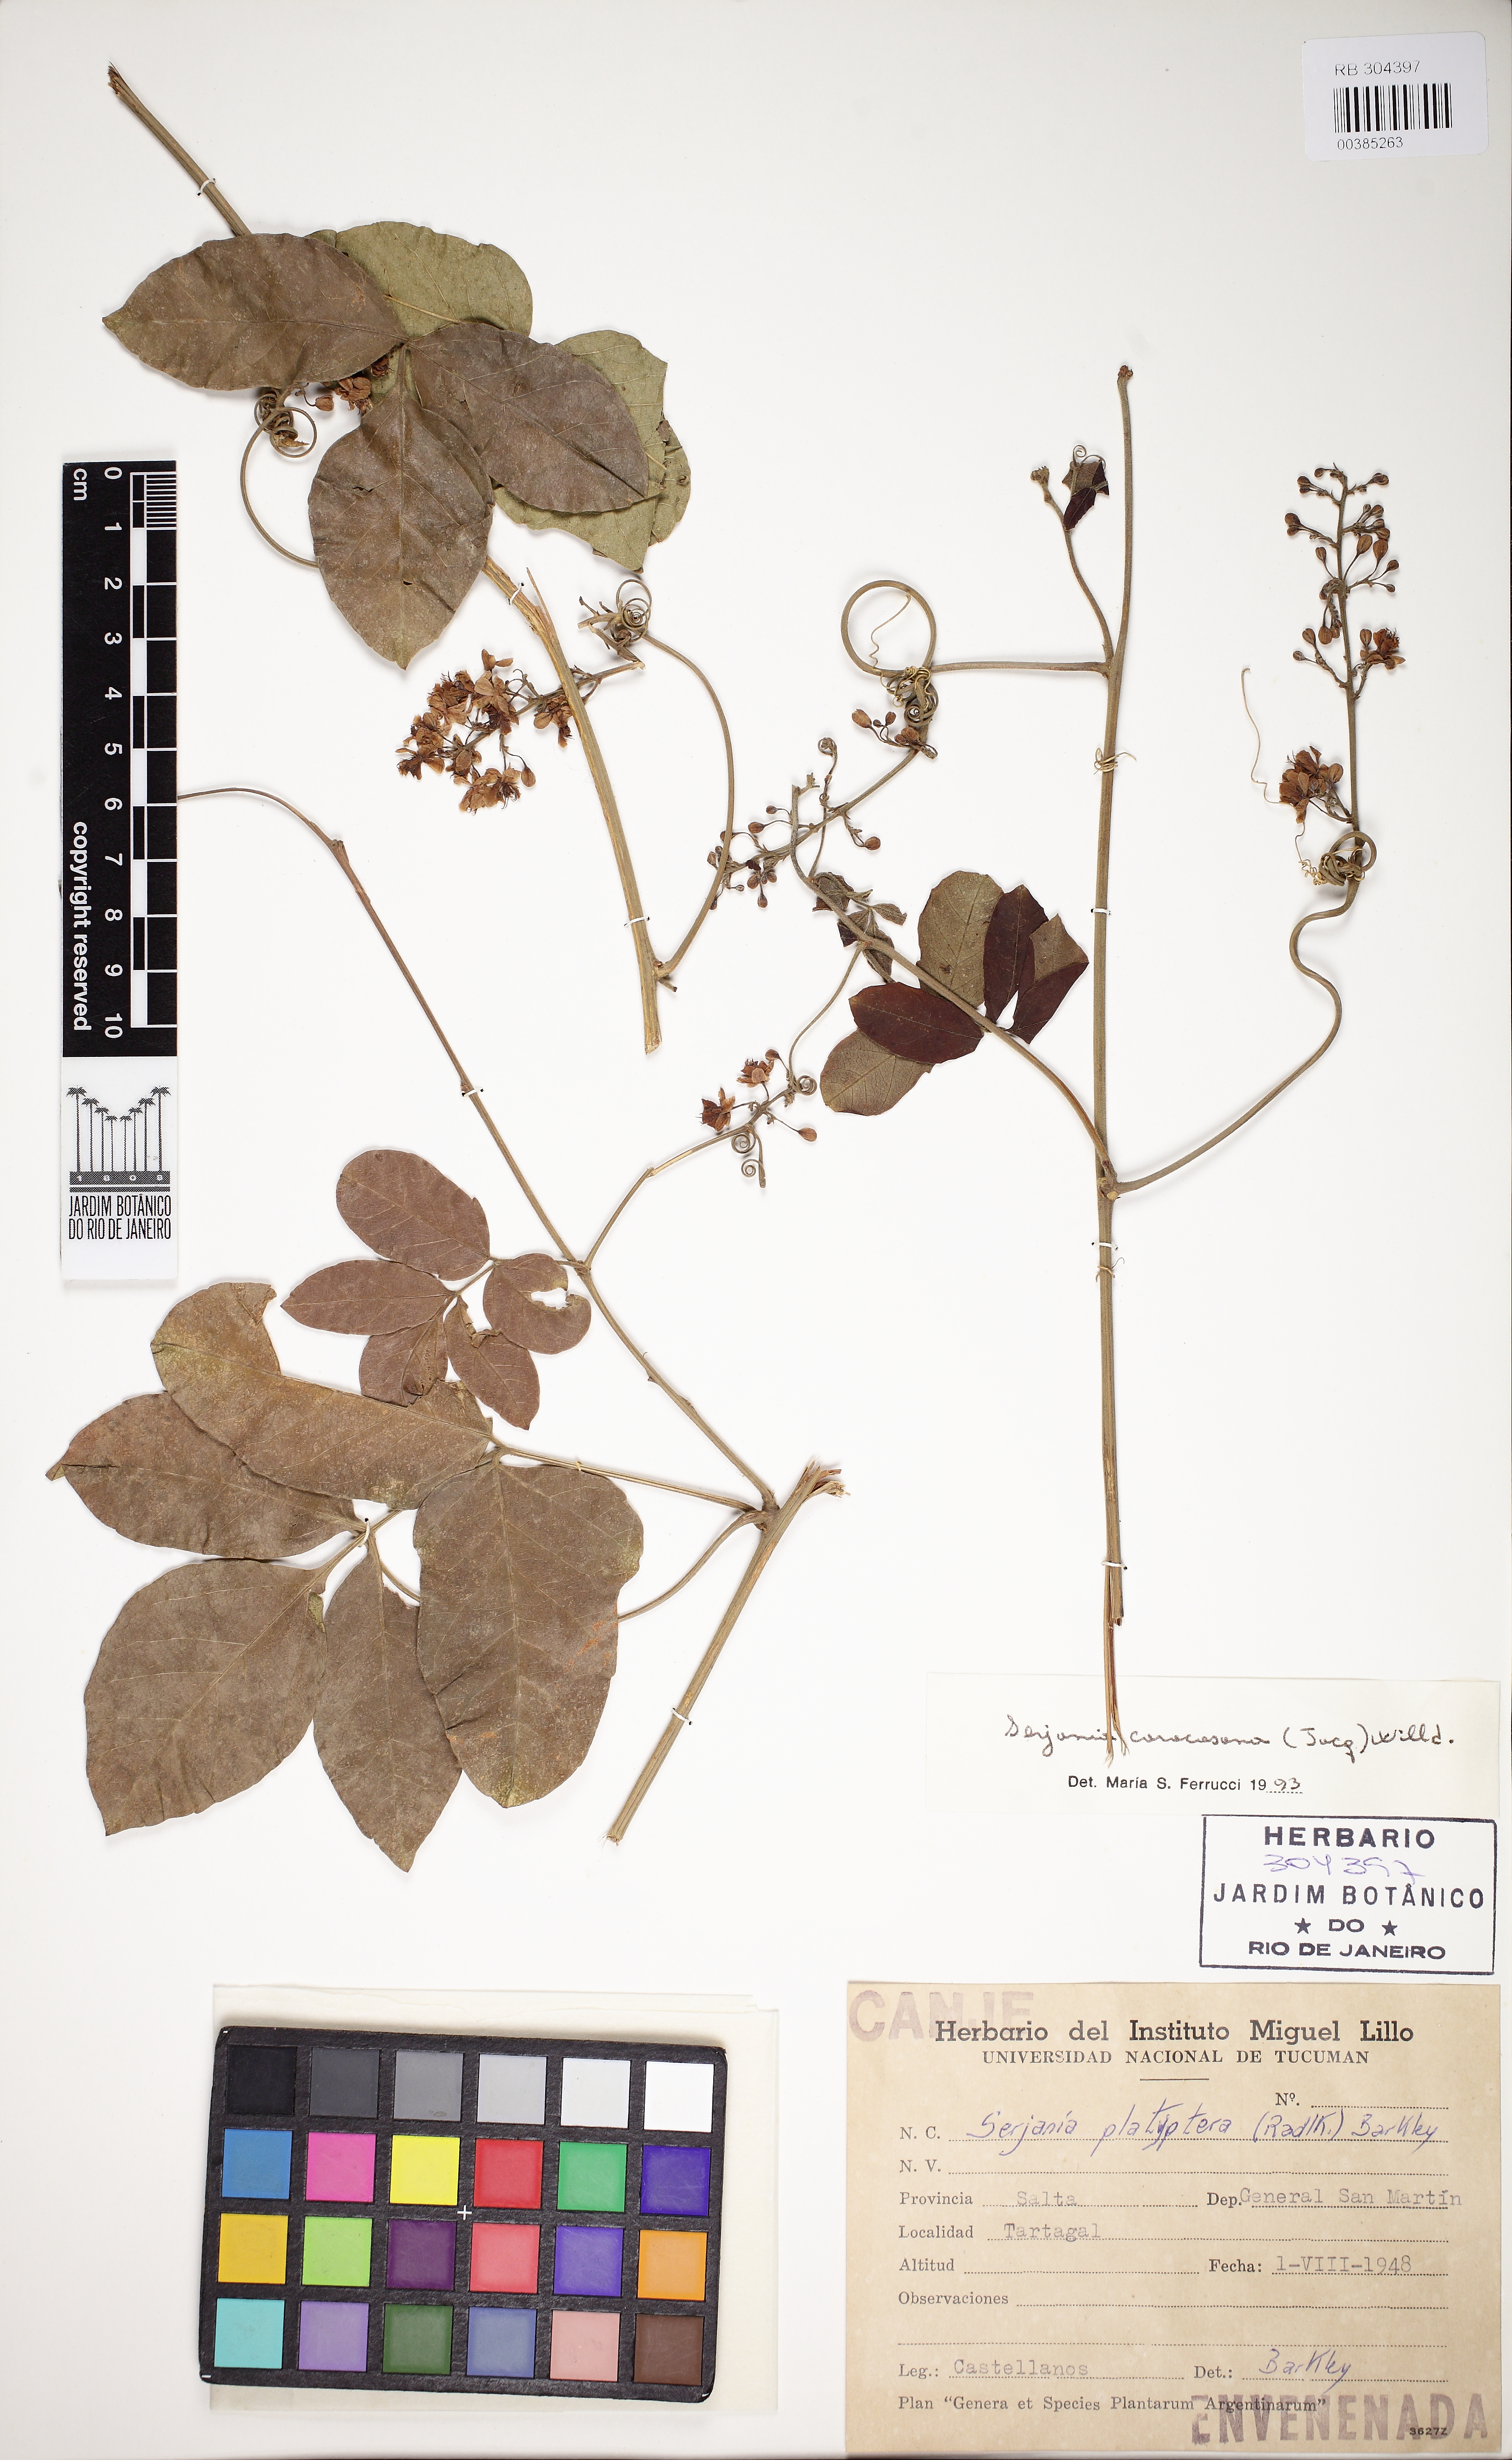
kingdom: Plantae
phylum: Tracheophyta
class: Magnoliopsida
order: Sapindales
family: Sapindaceae
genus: Serjania
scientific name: Serjania caracasana
